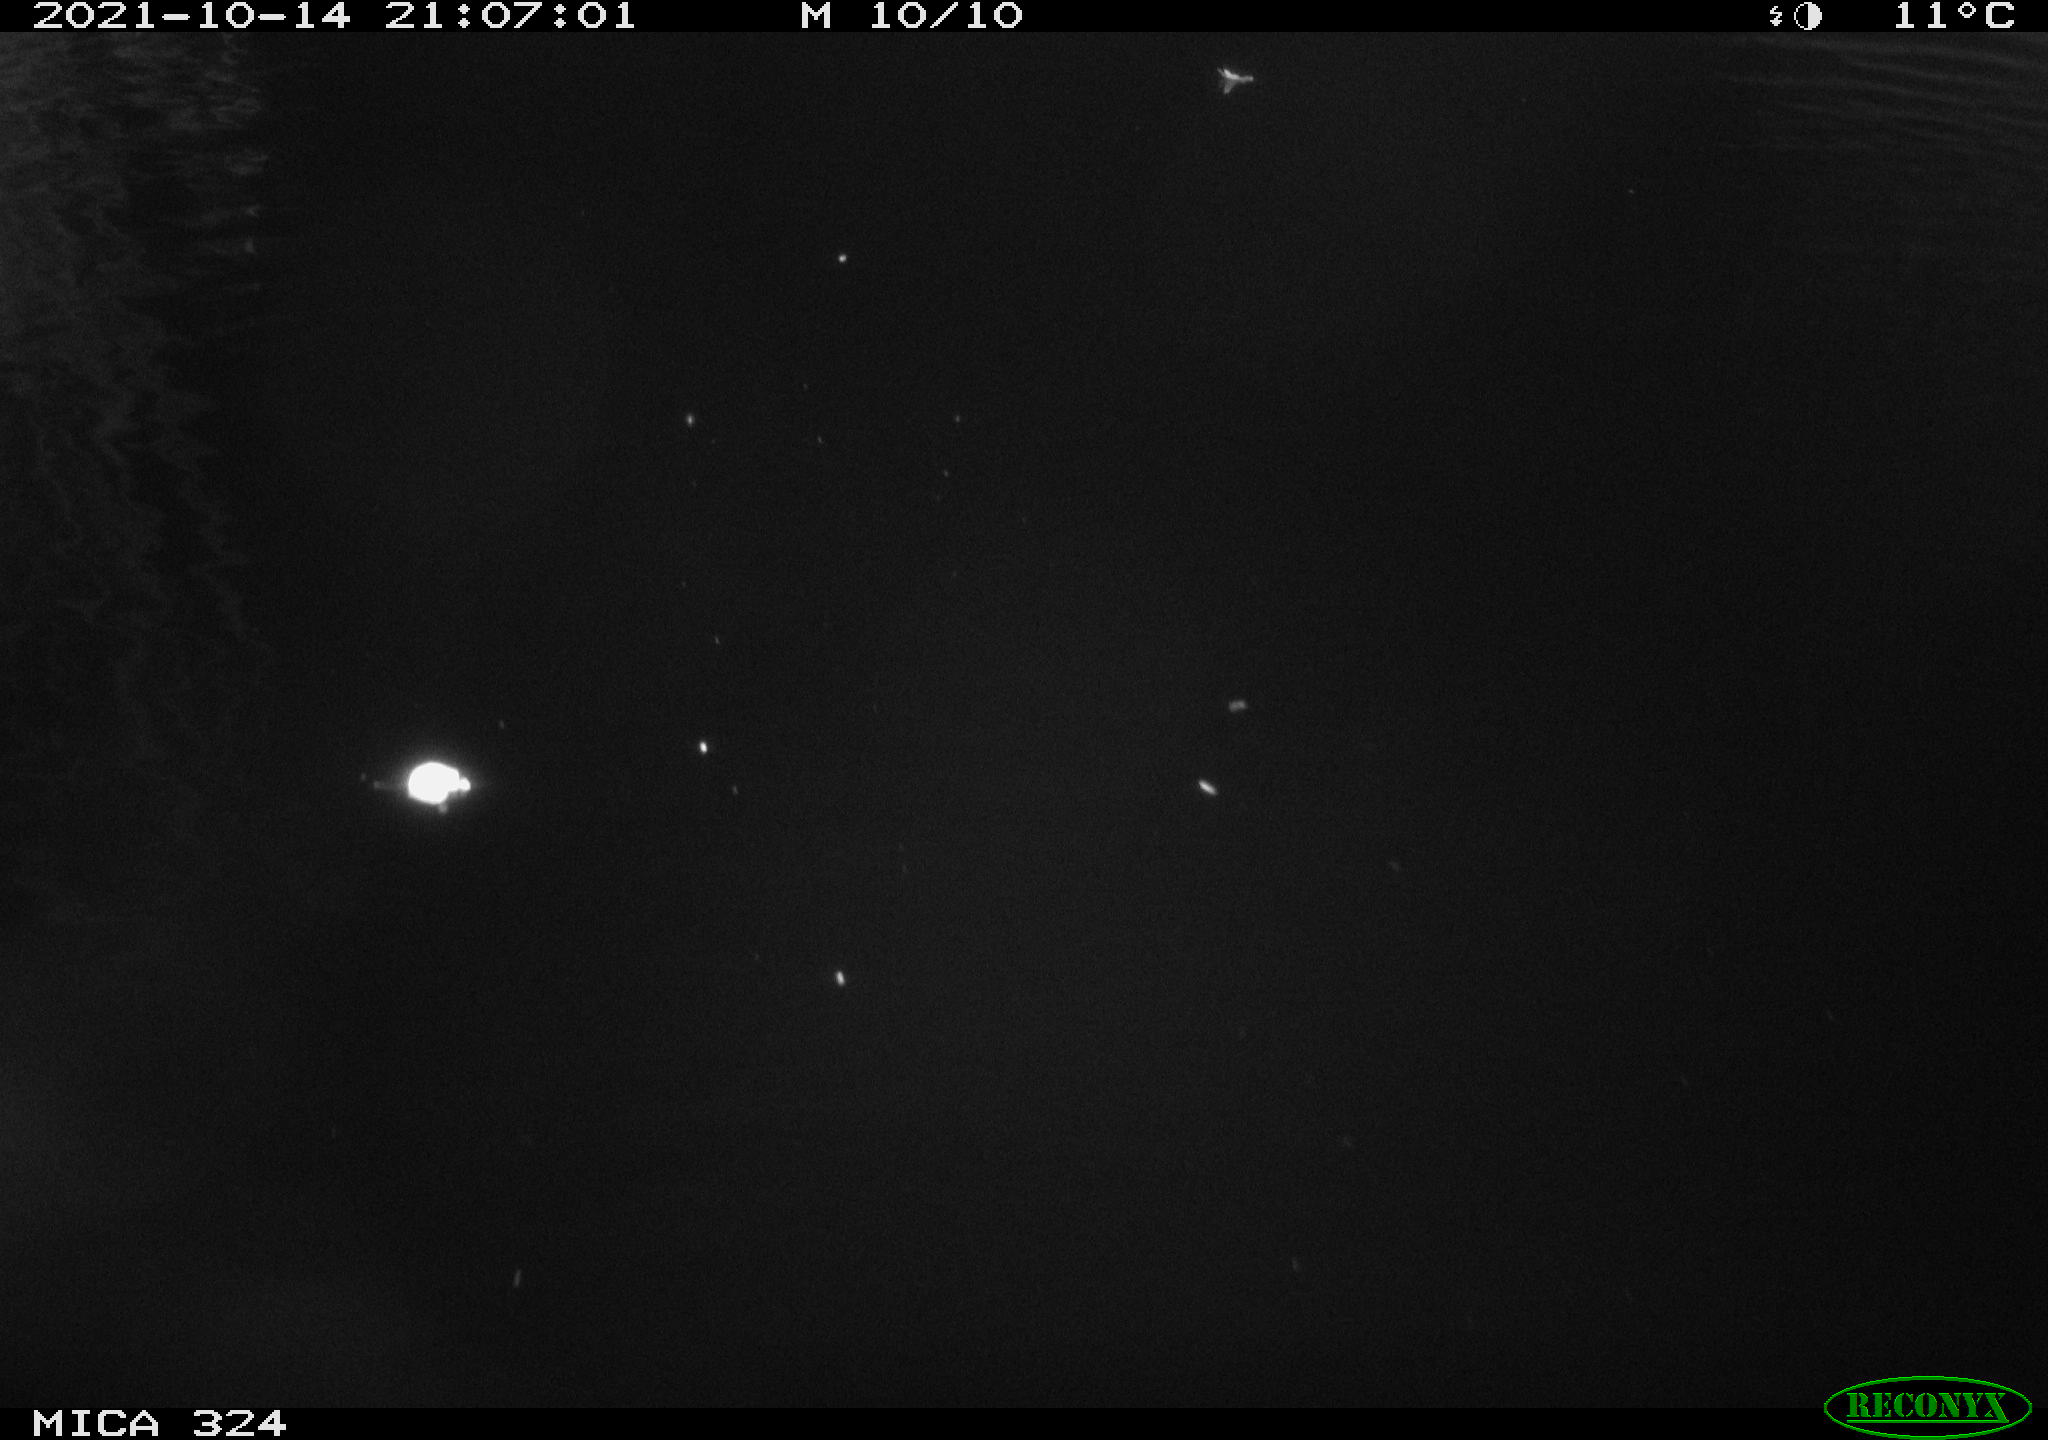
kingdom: Animalia
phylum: Chordata
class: Mammalia
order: Rodentia
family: Cricetidae
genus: Ondatra
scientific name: Ondatra zibethicus
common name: Muskrat
